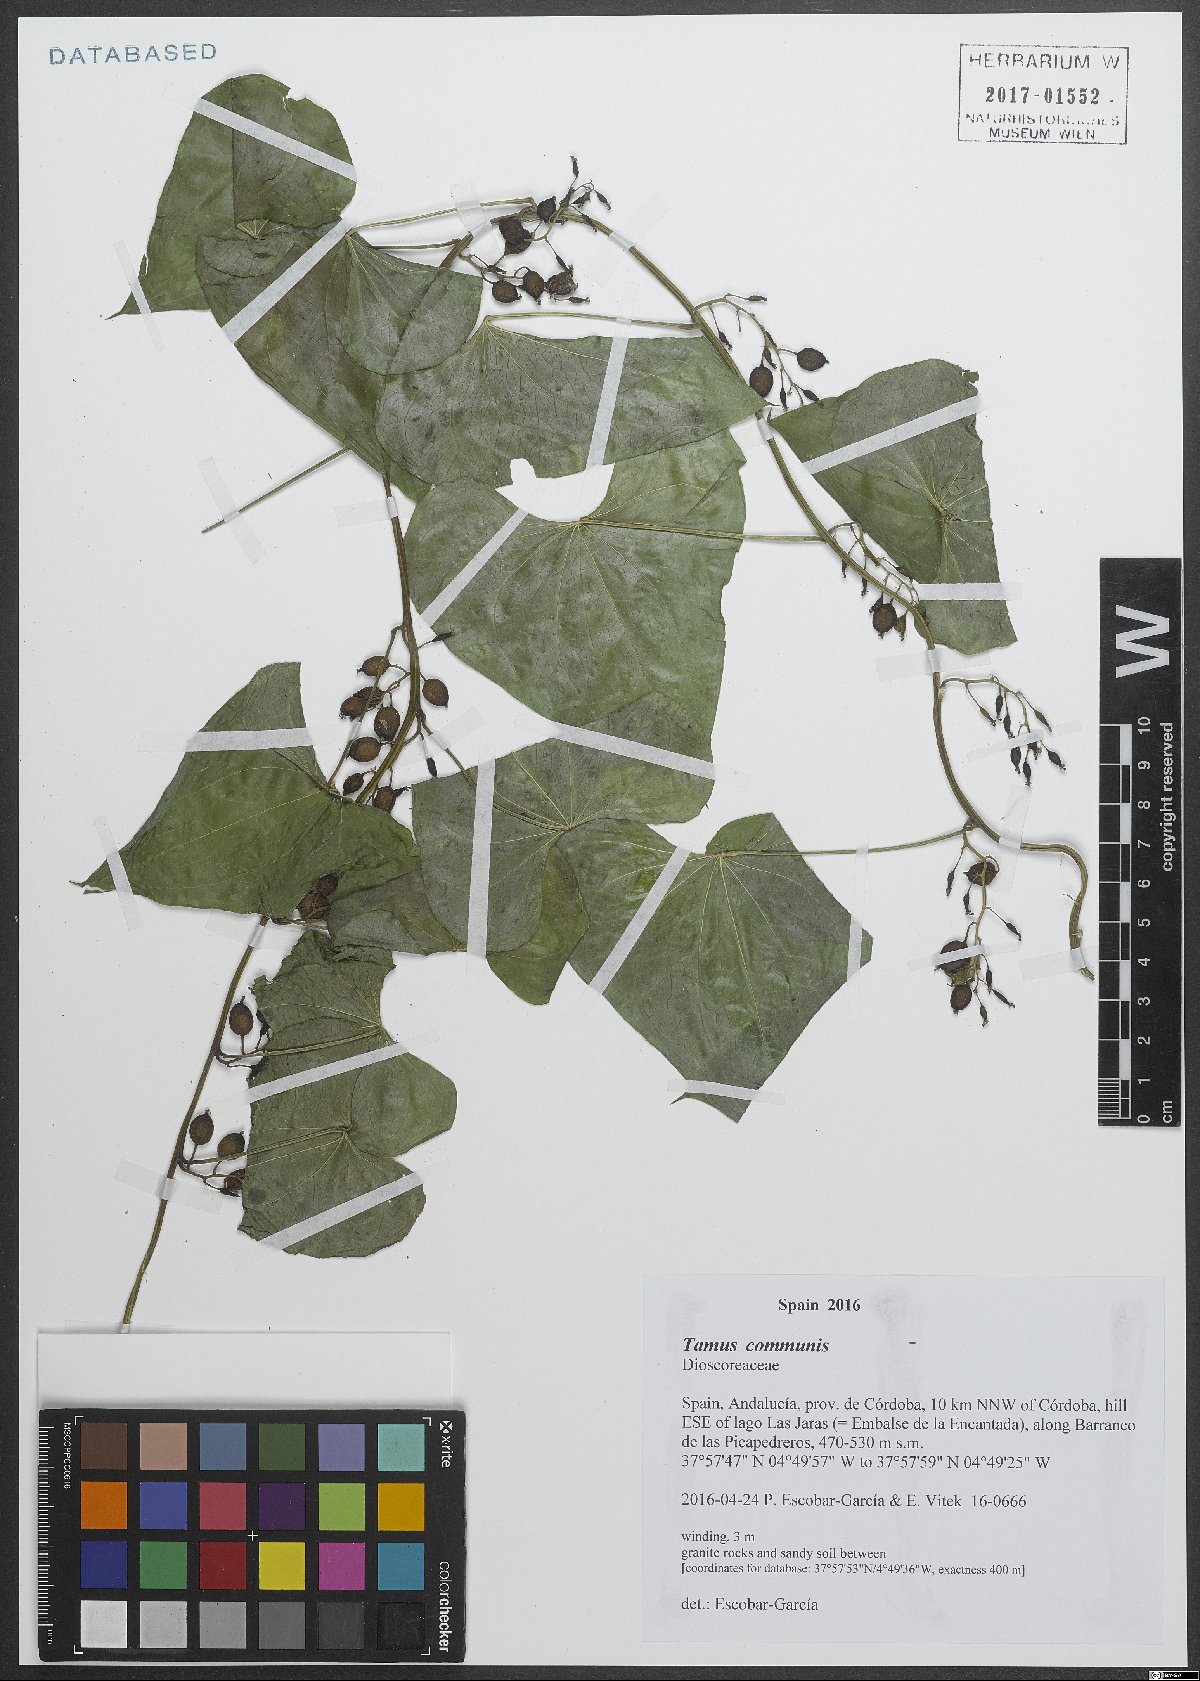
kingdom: Plantae
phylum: Tracheophyta
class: Liliopsida
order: Dioscoreales
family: Dioscoreaceae
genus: Dioscorea
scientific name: Dioscorea communis
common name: Black-bindweed
